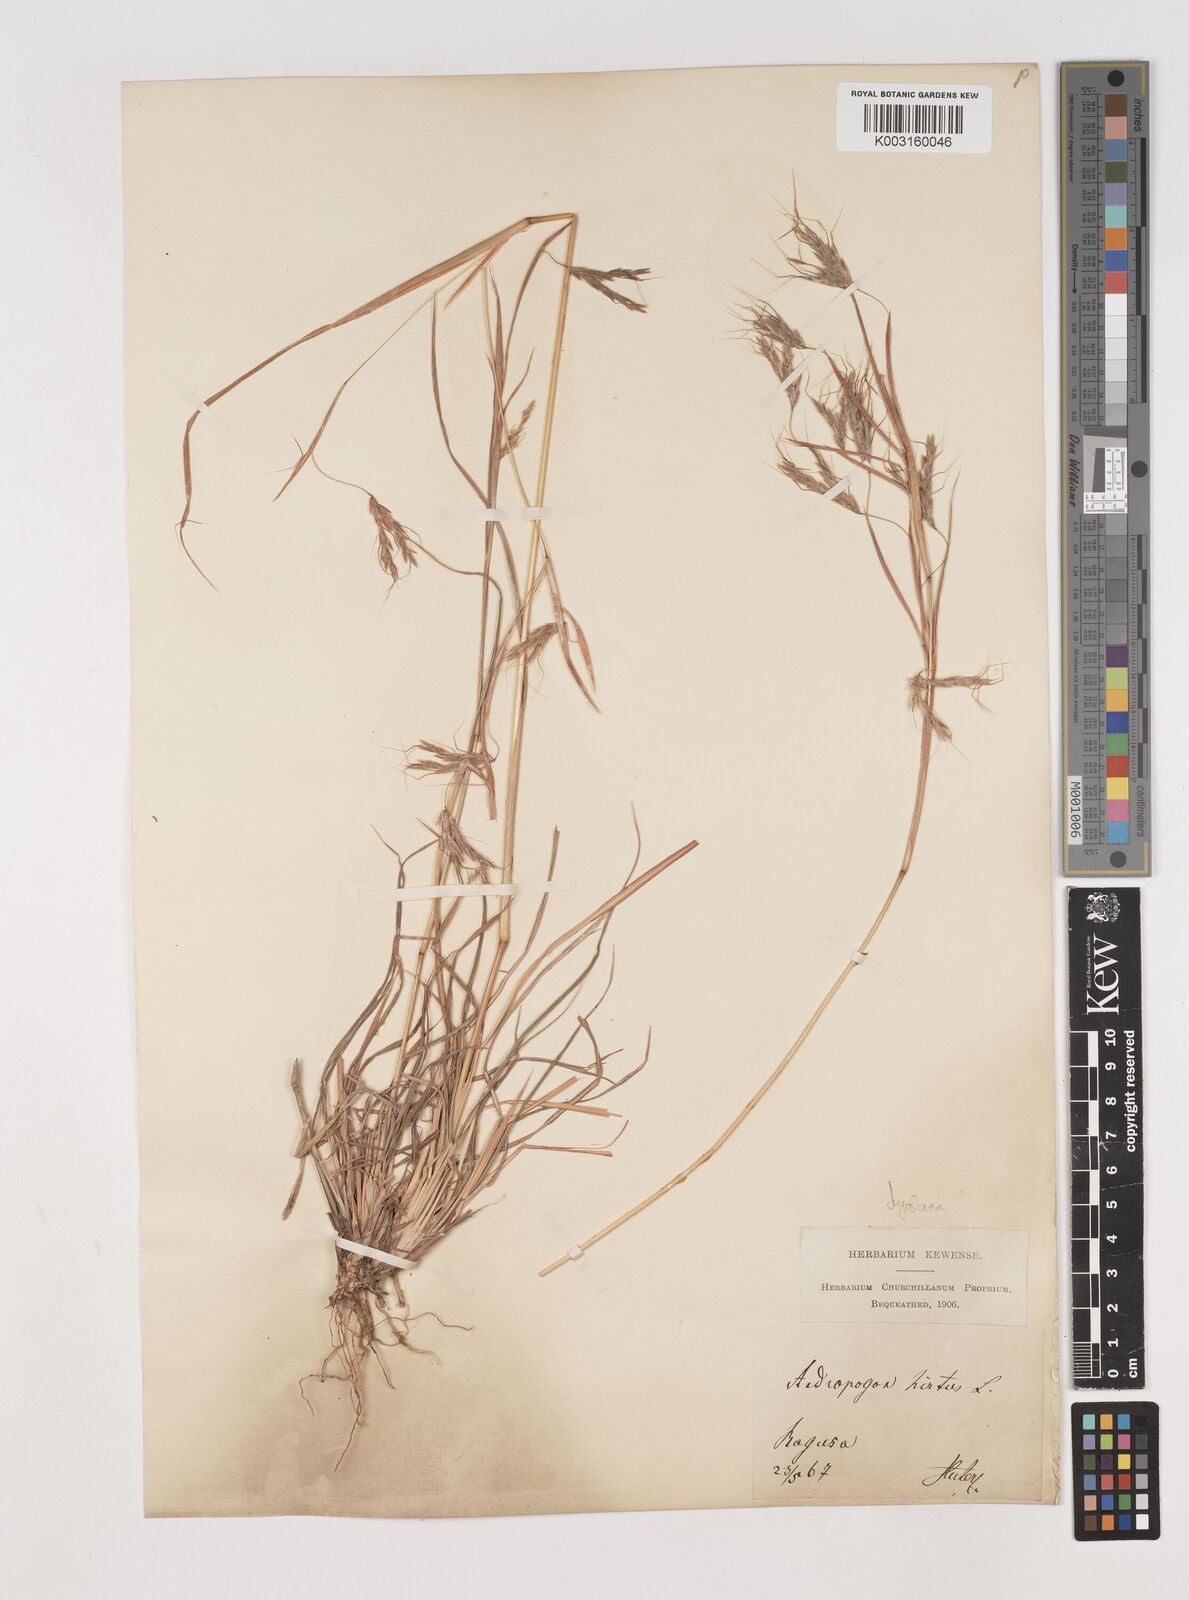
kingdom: Plantae
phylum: Tracheophyta
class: Liliopsida
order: Poales
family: Poaceae
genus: Hyparrhenia
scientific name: Hyparrhenia hirta
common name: Thatching grass
